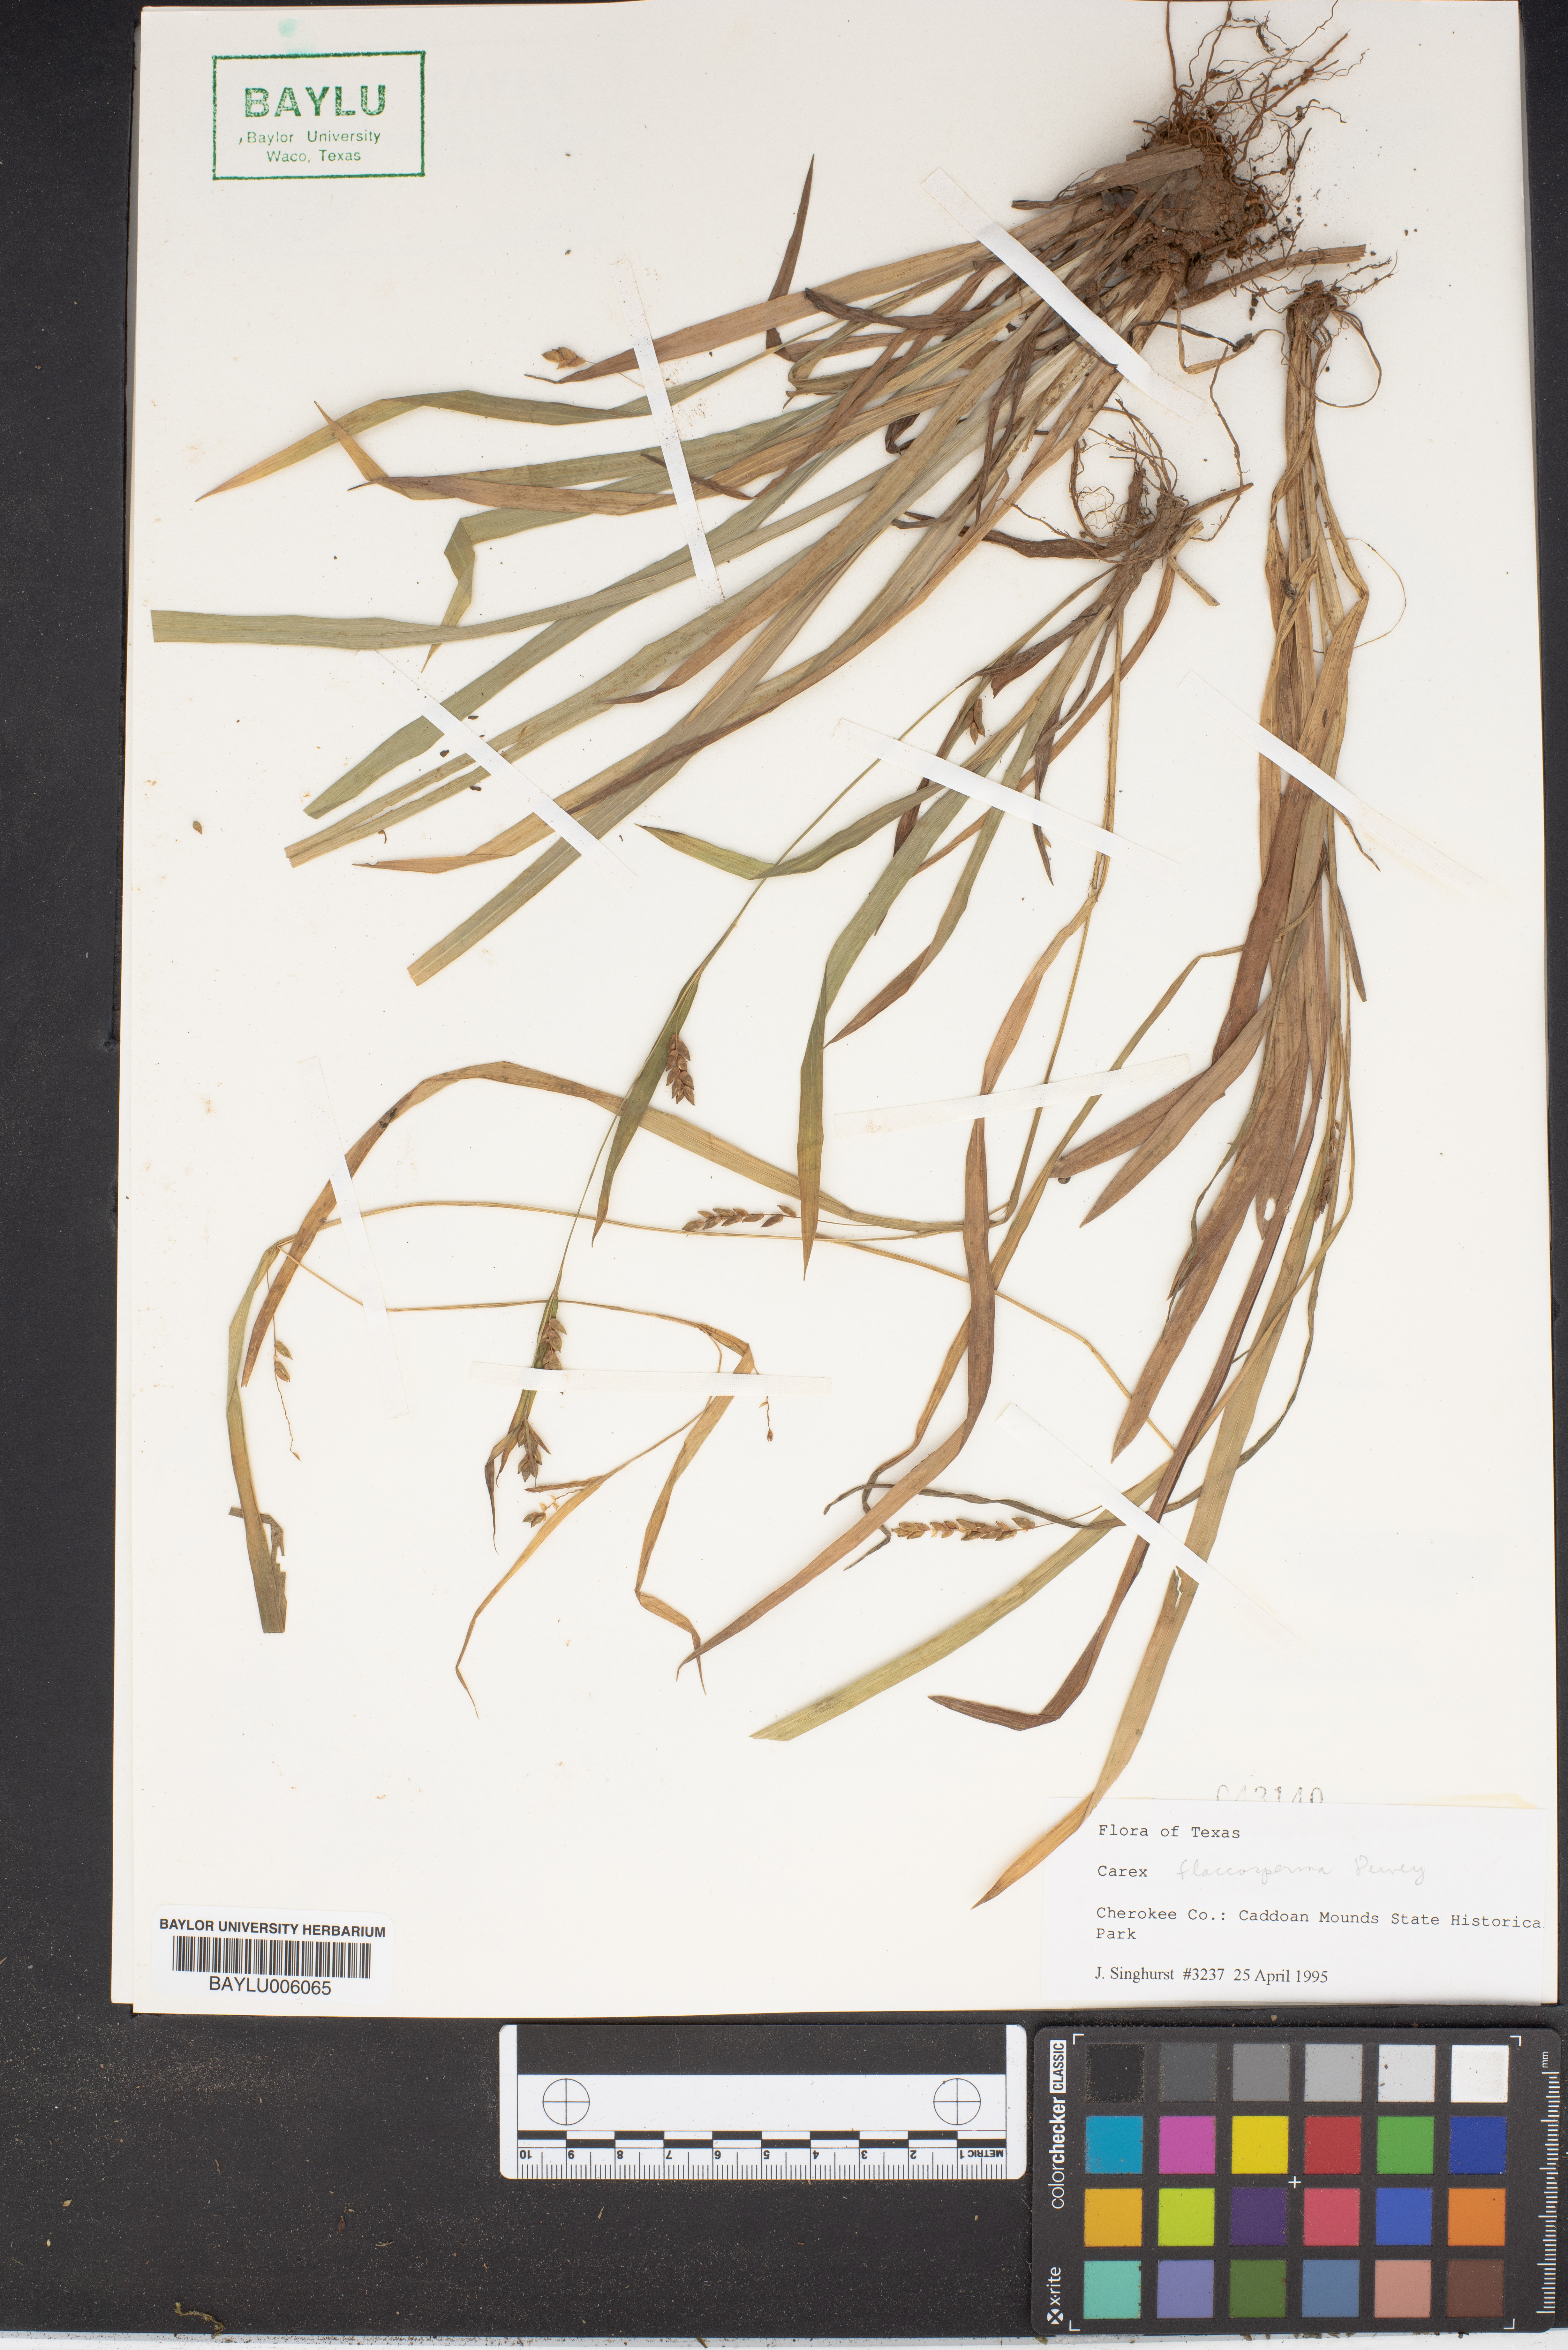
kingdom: Plantae
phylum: Tracheophyta
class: Liliopsida
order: Poales
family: Cyperaceae
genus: Carex
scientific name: Carex flaccosperma
